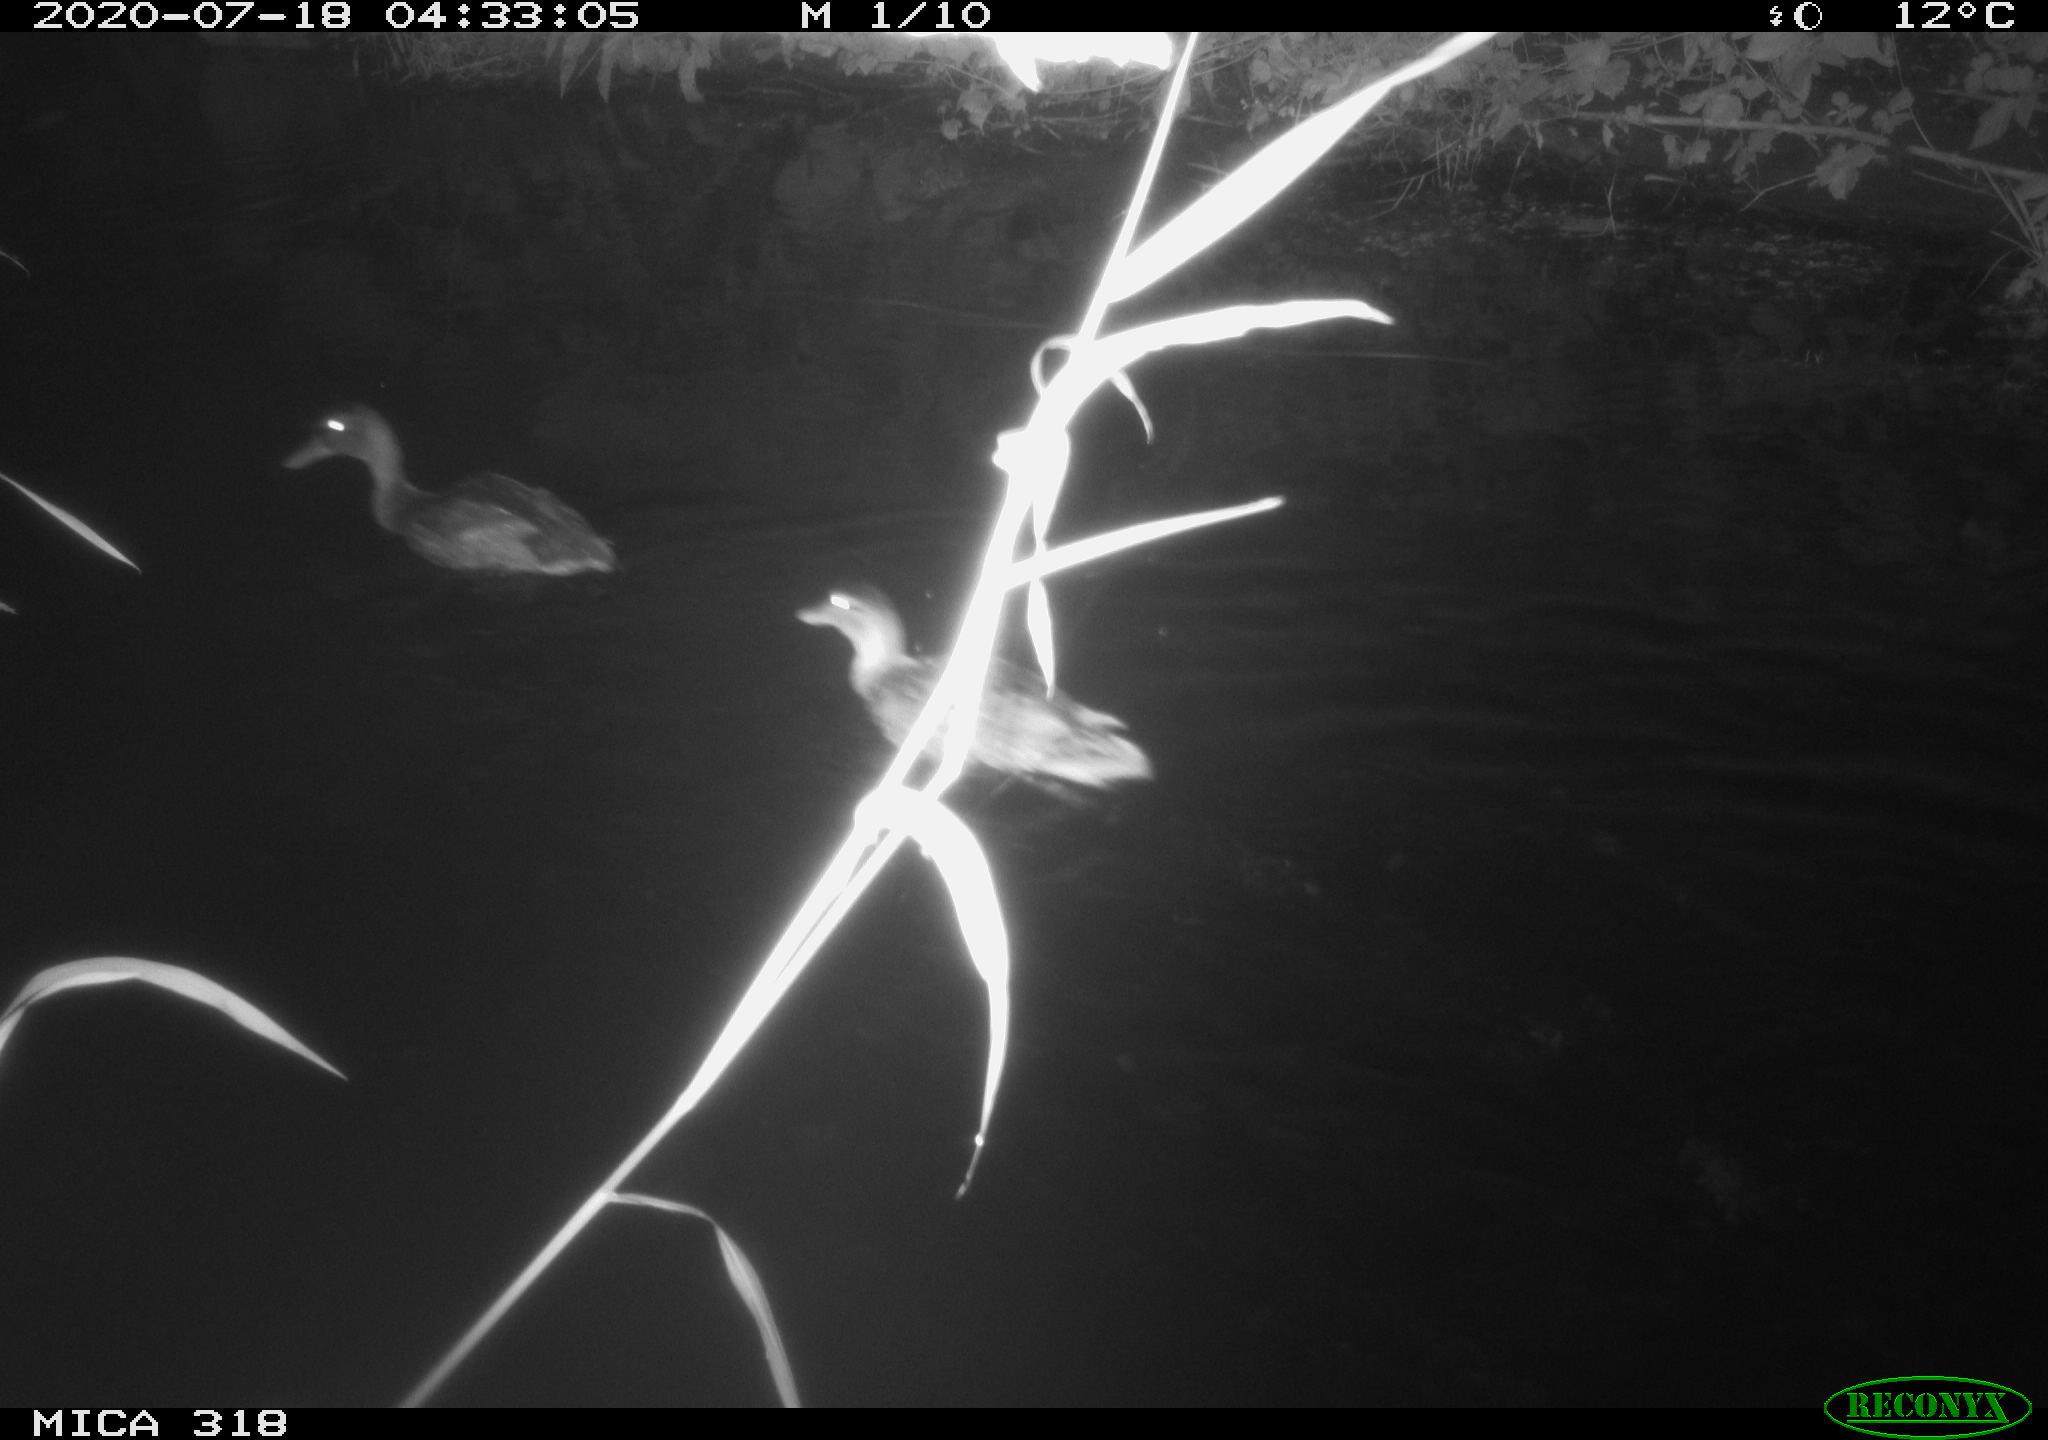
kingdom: Animalia
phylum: Chordata
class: Aves
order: Anseriformes
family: Anatidae
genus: Anas
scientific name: Anas platyrhynchos
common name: Mallard
